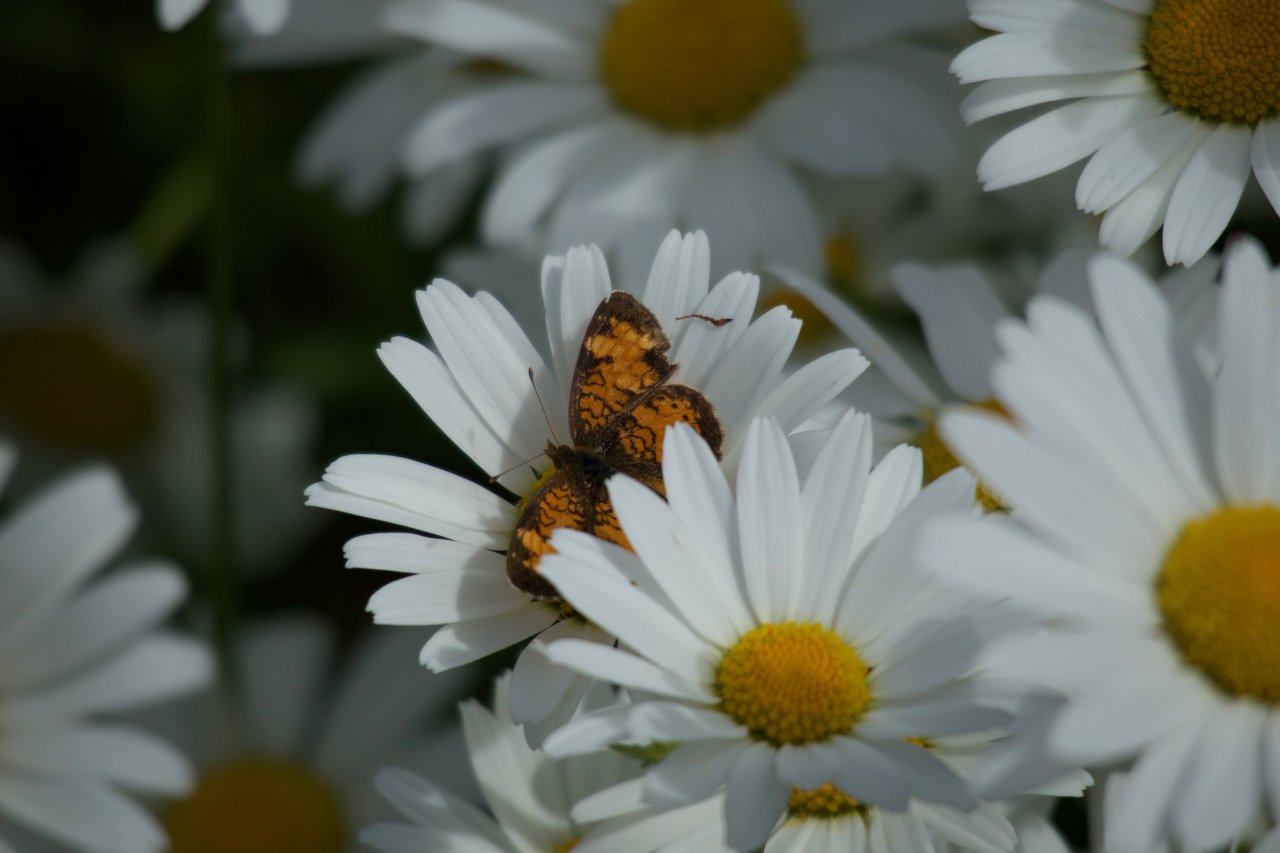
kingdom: Animalia
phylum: Arthropoda
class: Insecta
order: Lepidoptera
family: Nymphalidae
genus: Phyciodes
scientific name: Phyciodes tharos
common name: Northern Crescent
